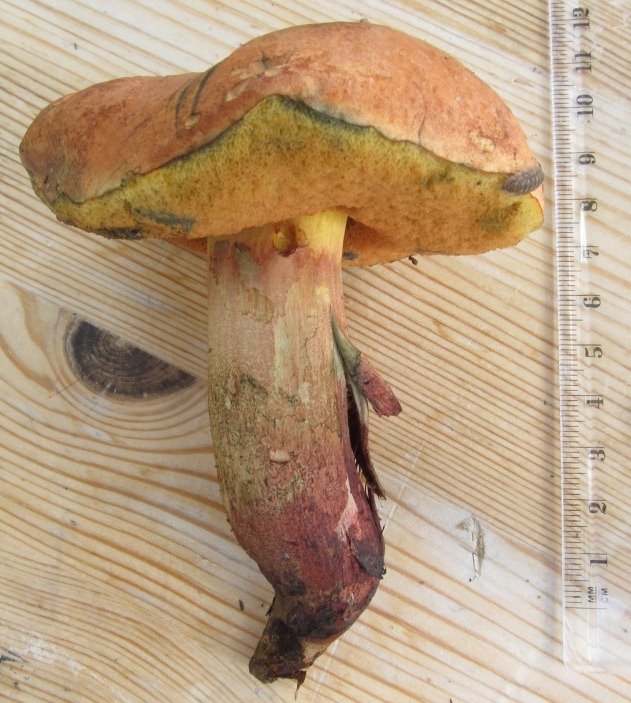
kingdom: Fungi
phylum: Basidiomycota
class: Agaricomycetes
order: Boletales
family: Boletaceae
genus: Suillellus
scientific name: Suillellus queletii
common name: glatstokket indigorørhat
